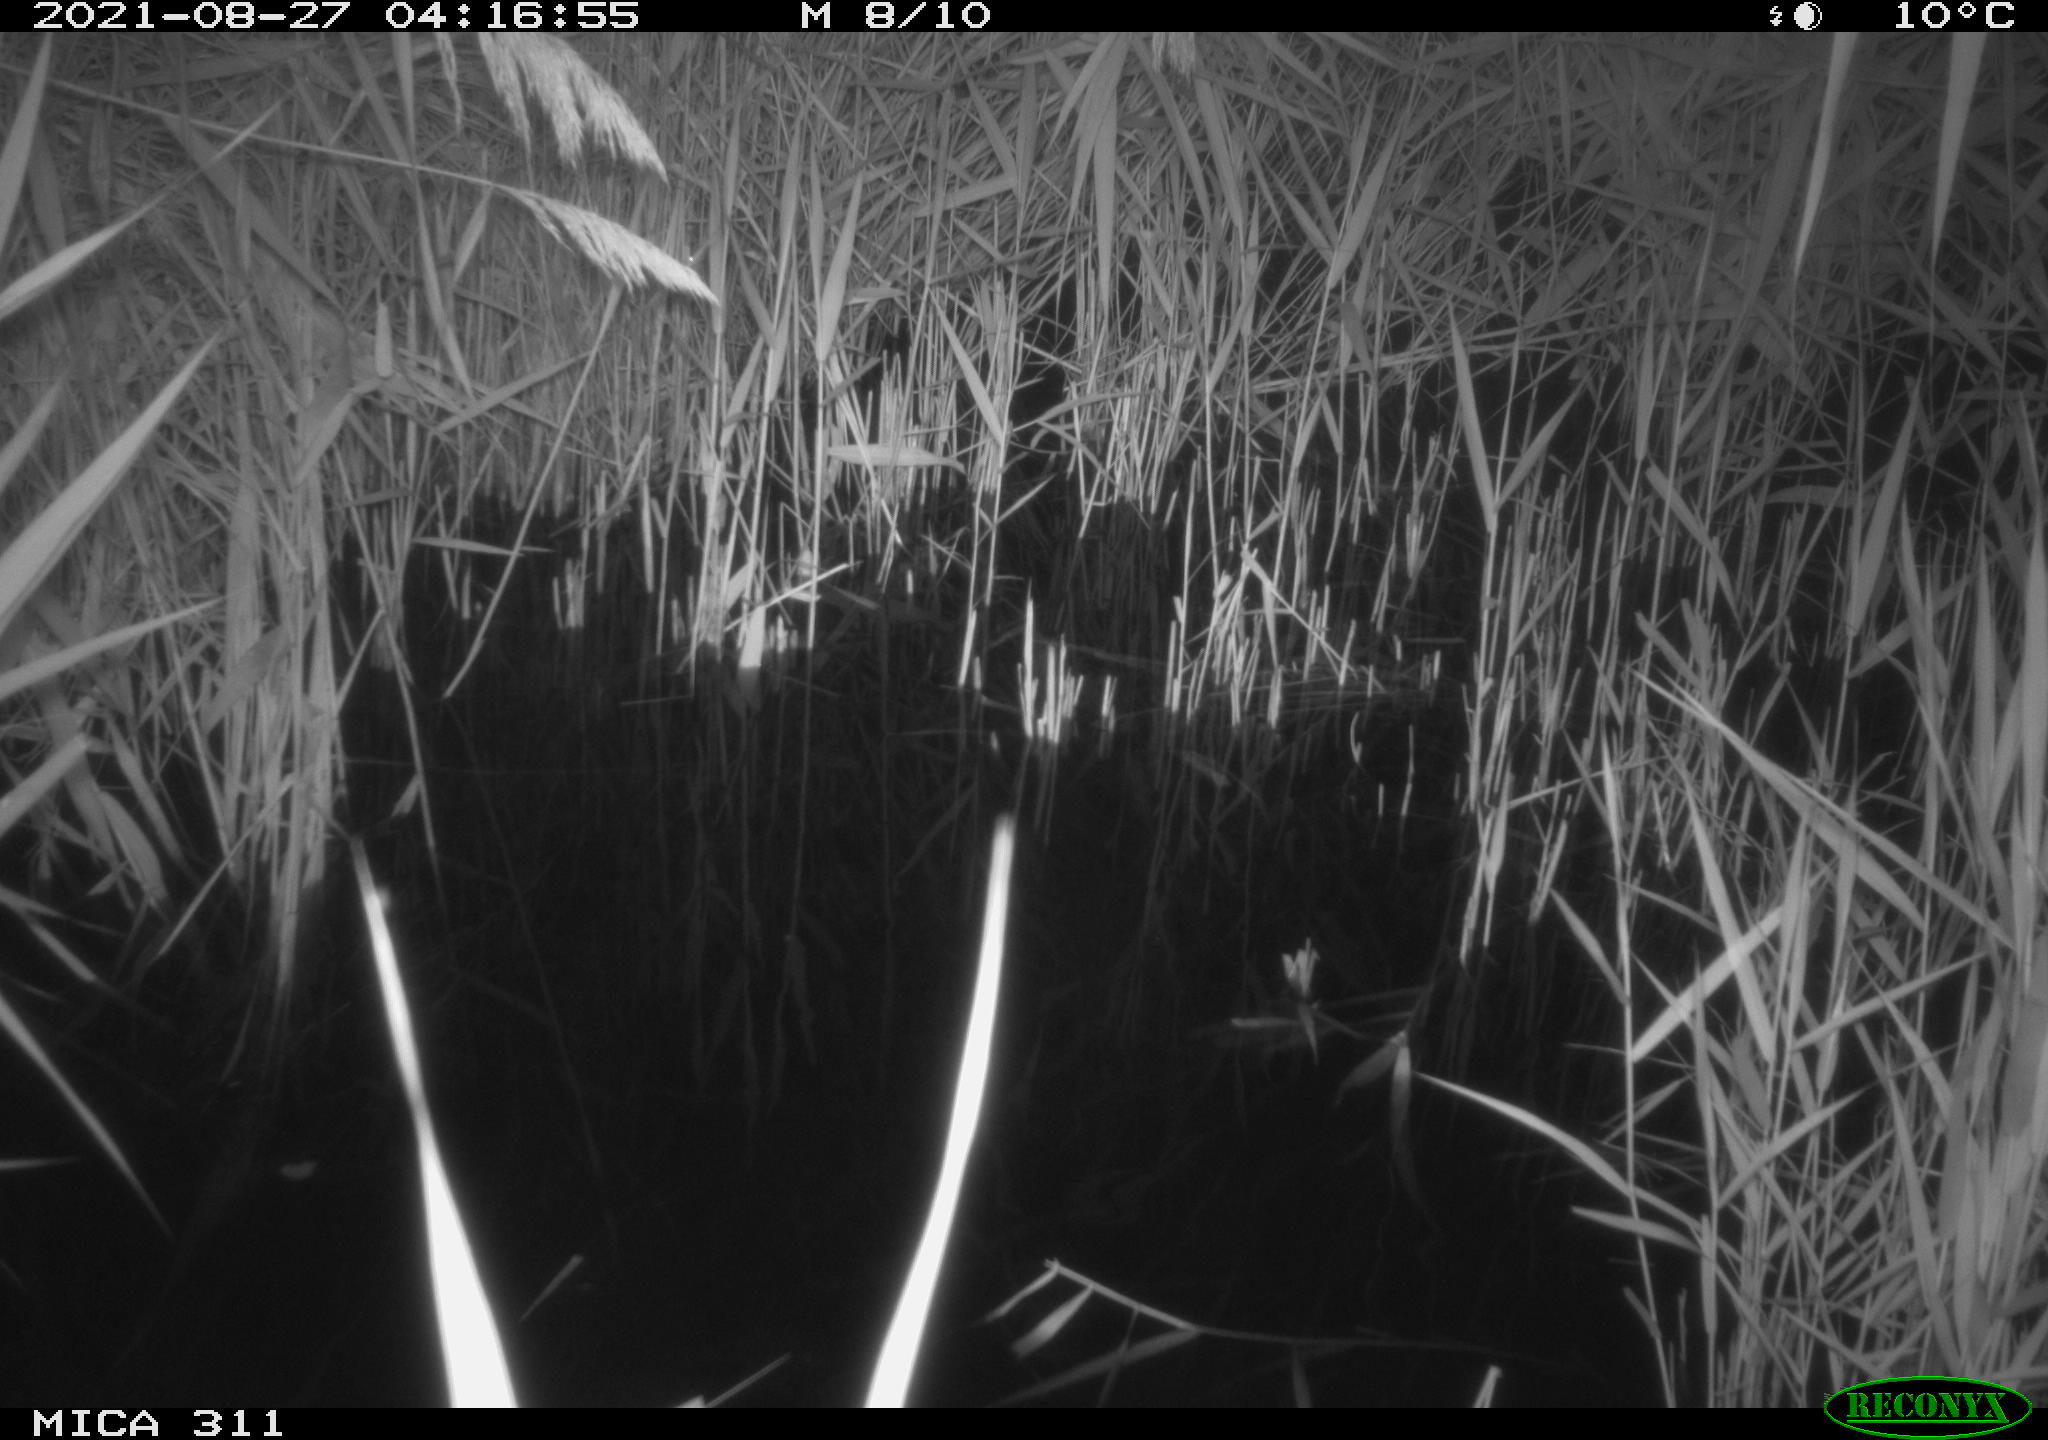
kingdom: Animalia
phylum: Chordata
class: Mammalia
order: Rodentia
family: Muridae
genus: Rattus
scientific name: Rattus norvegicus
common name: Brown rat
